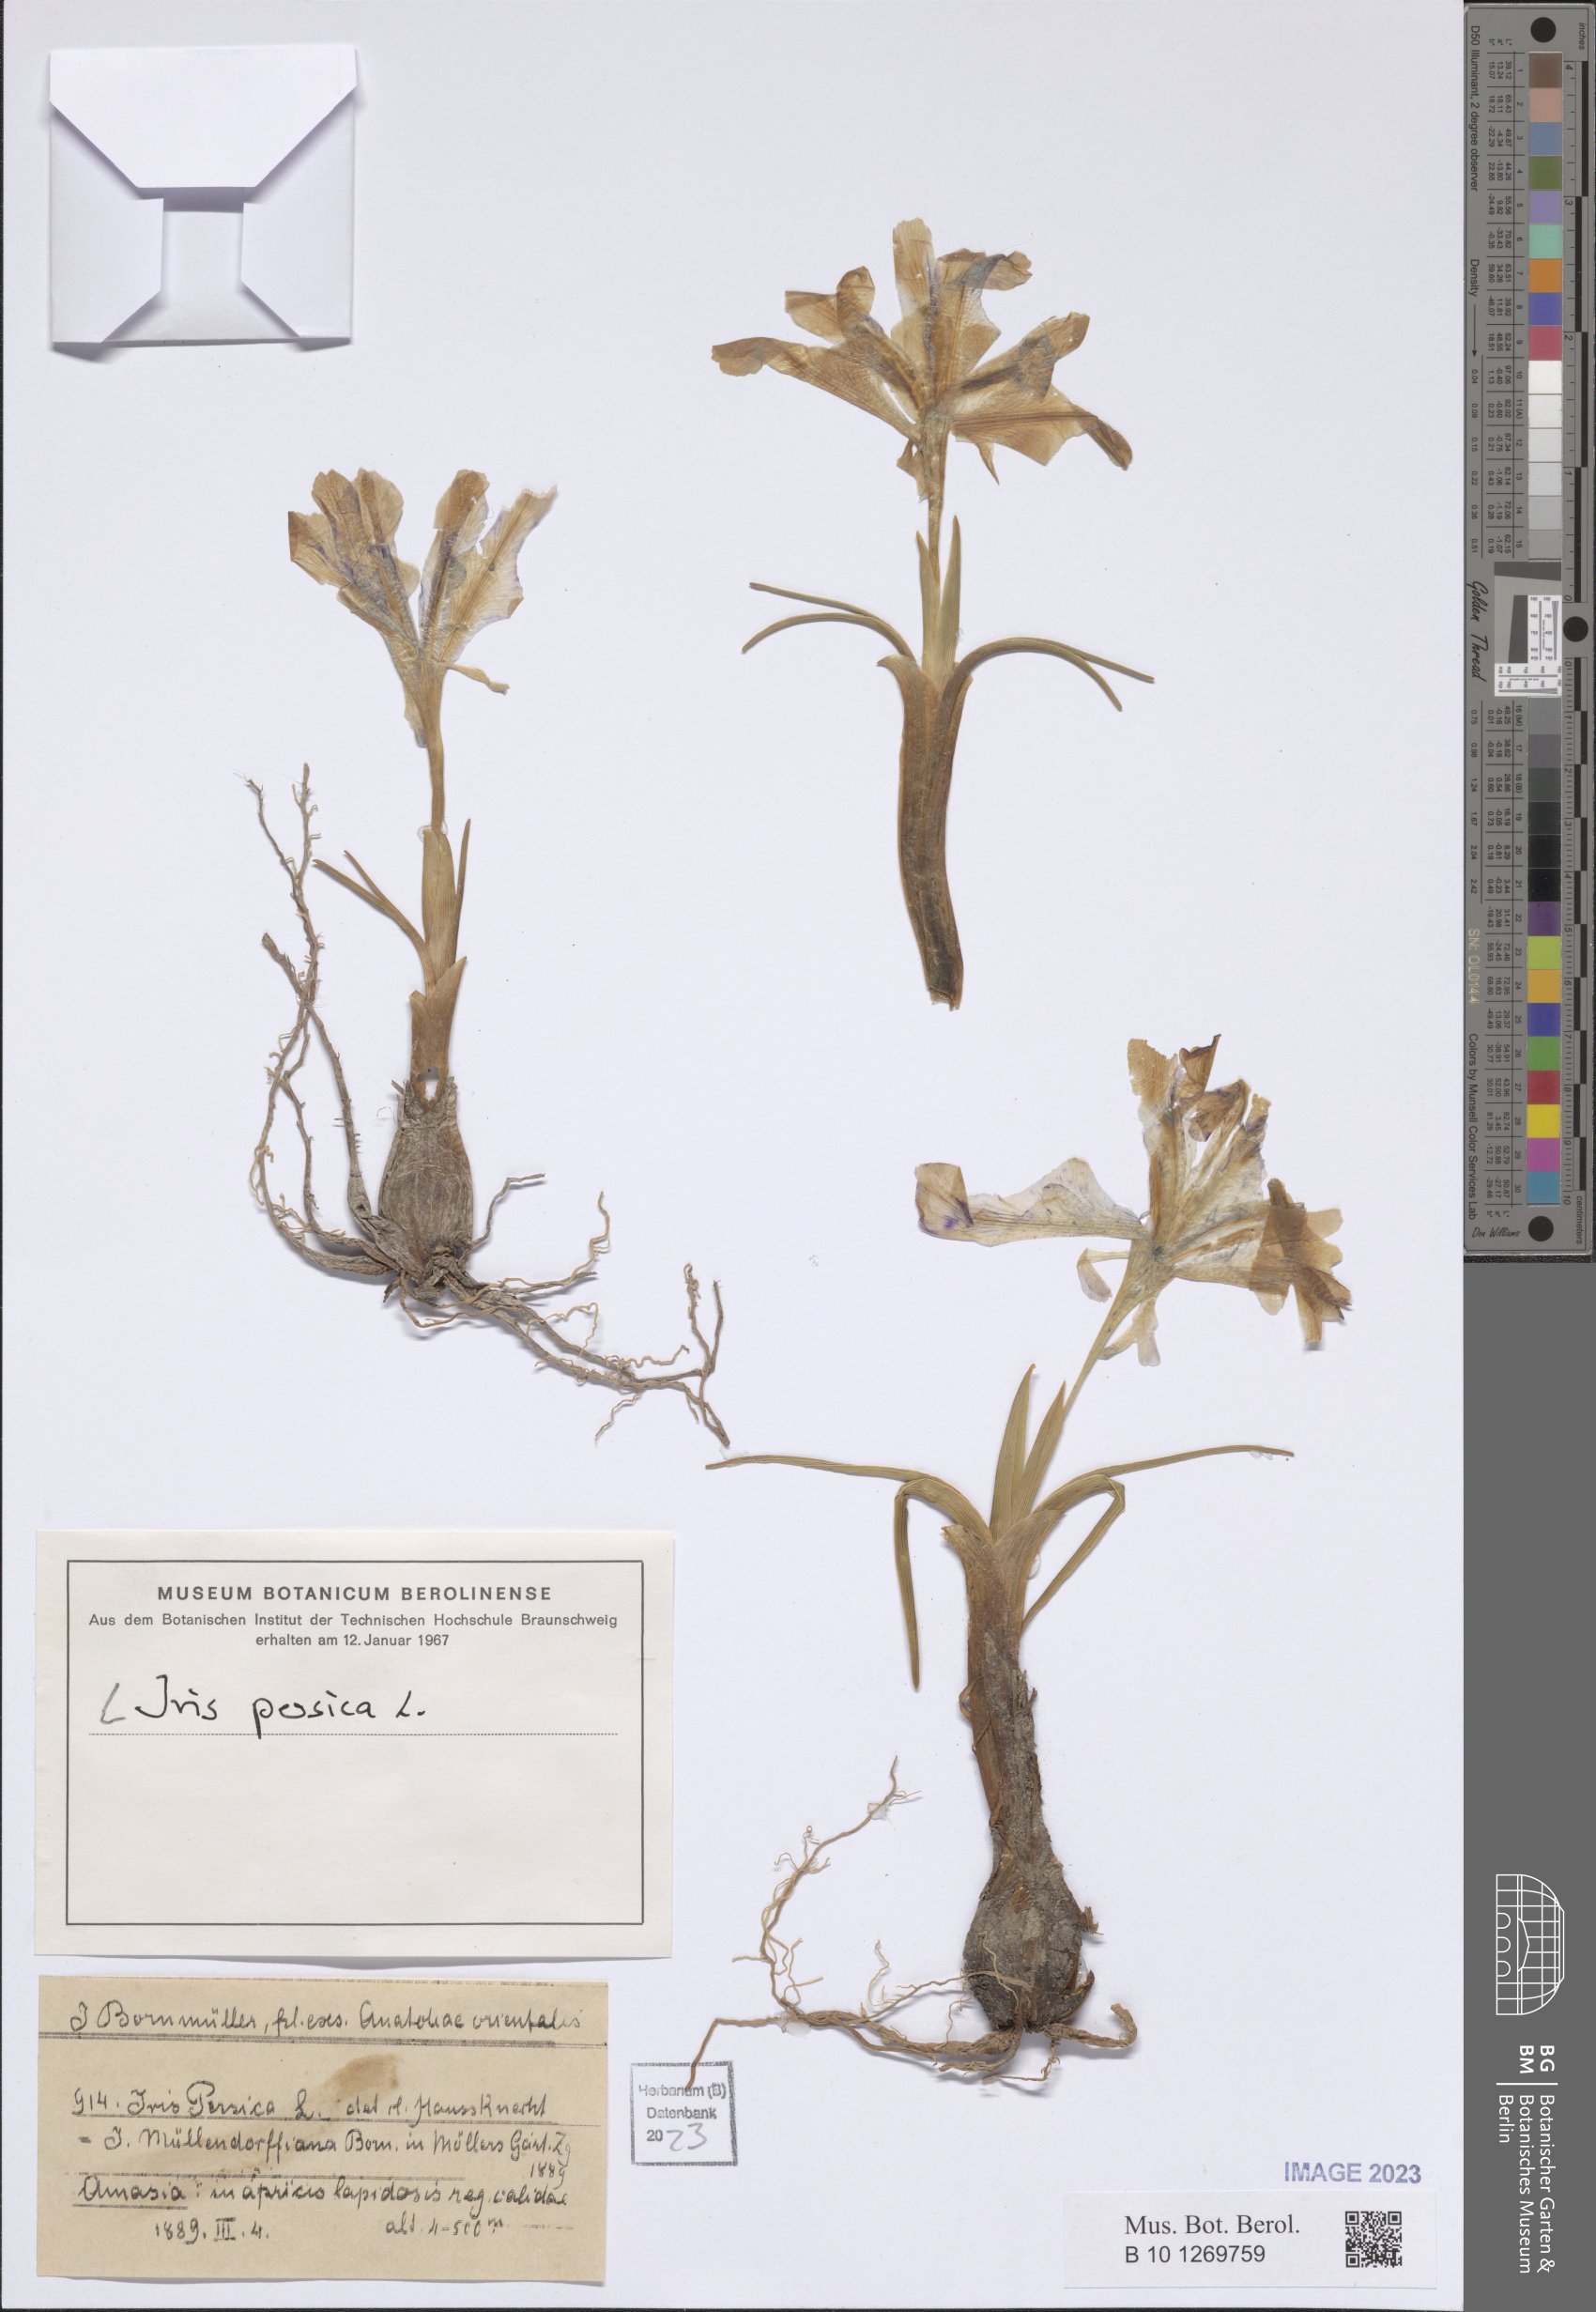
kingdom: Plantae
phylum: Tracheophyta
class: Liliopsida
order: Asparagales
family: Iridaceae
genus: Iris
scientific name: Iris persica
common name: Persian iris
